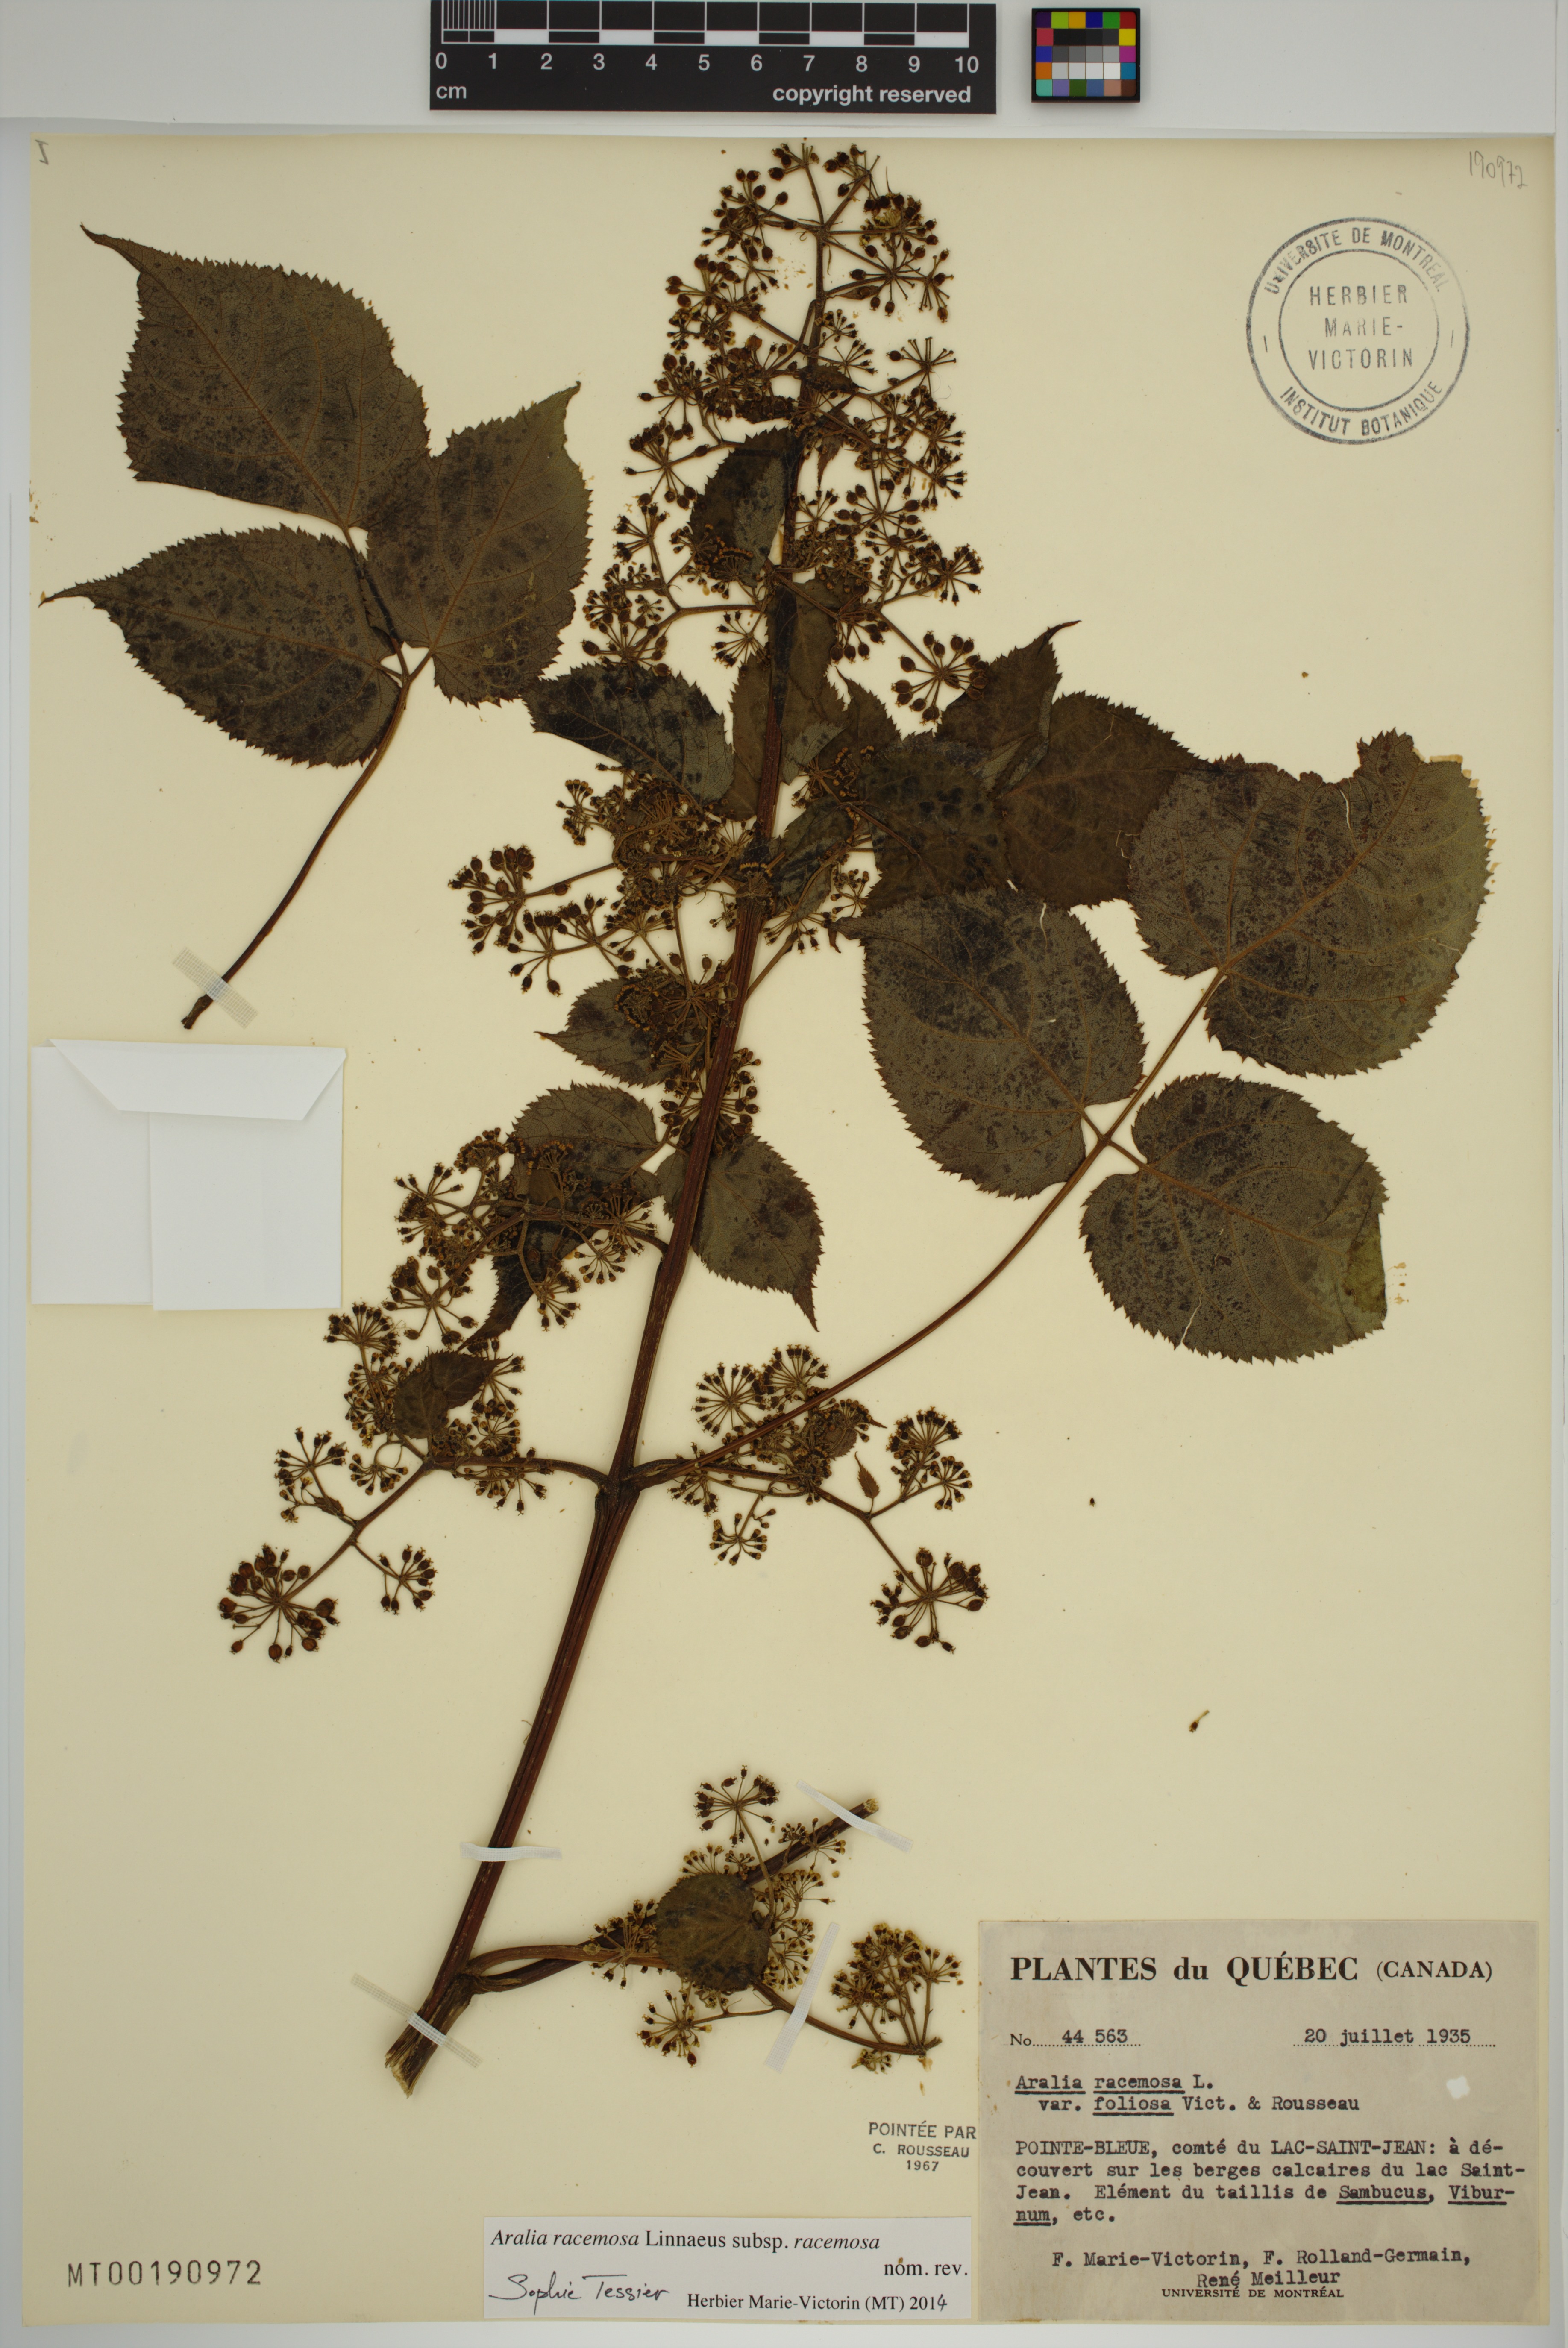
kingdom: Plantae
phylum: Tracheophyta
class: Magnoliopsida
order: Apiales
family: Araliaceae
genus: Aralia
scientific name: Aralia racemosa
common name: American-spikenard
